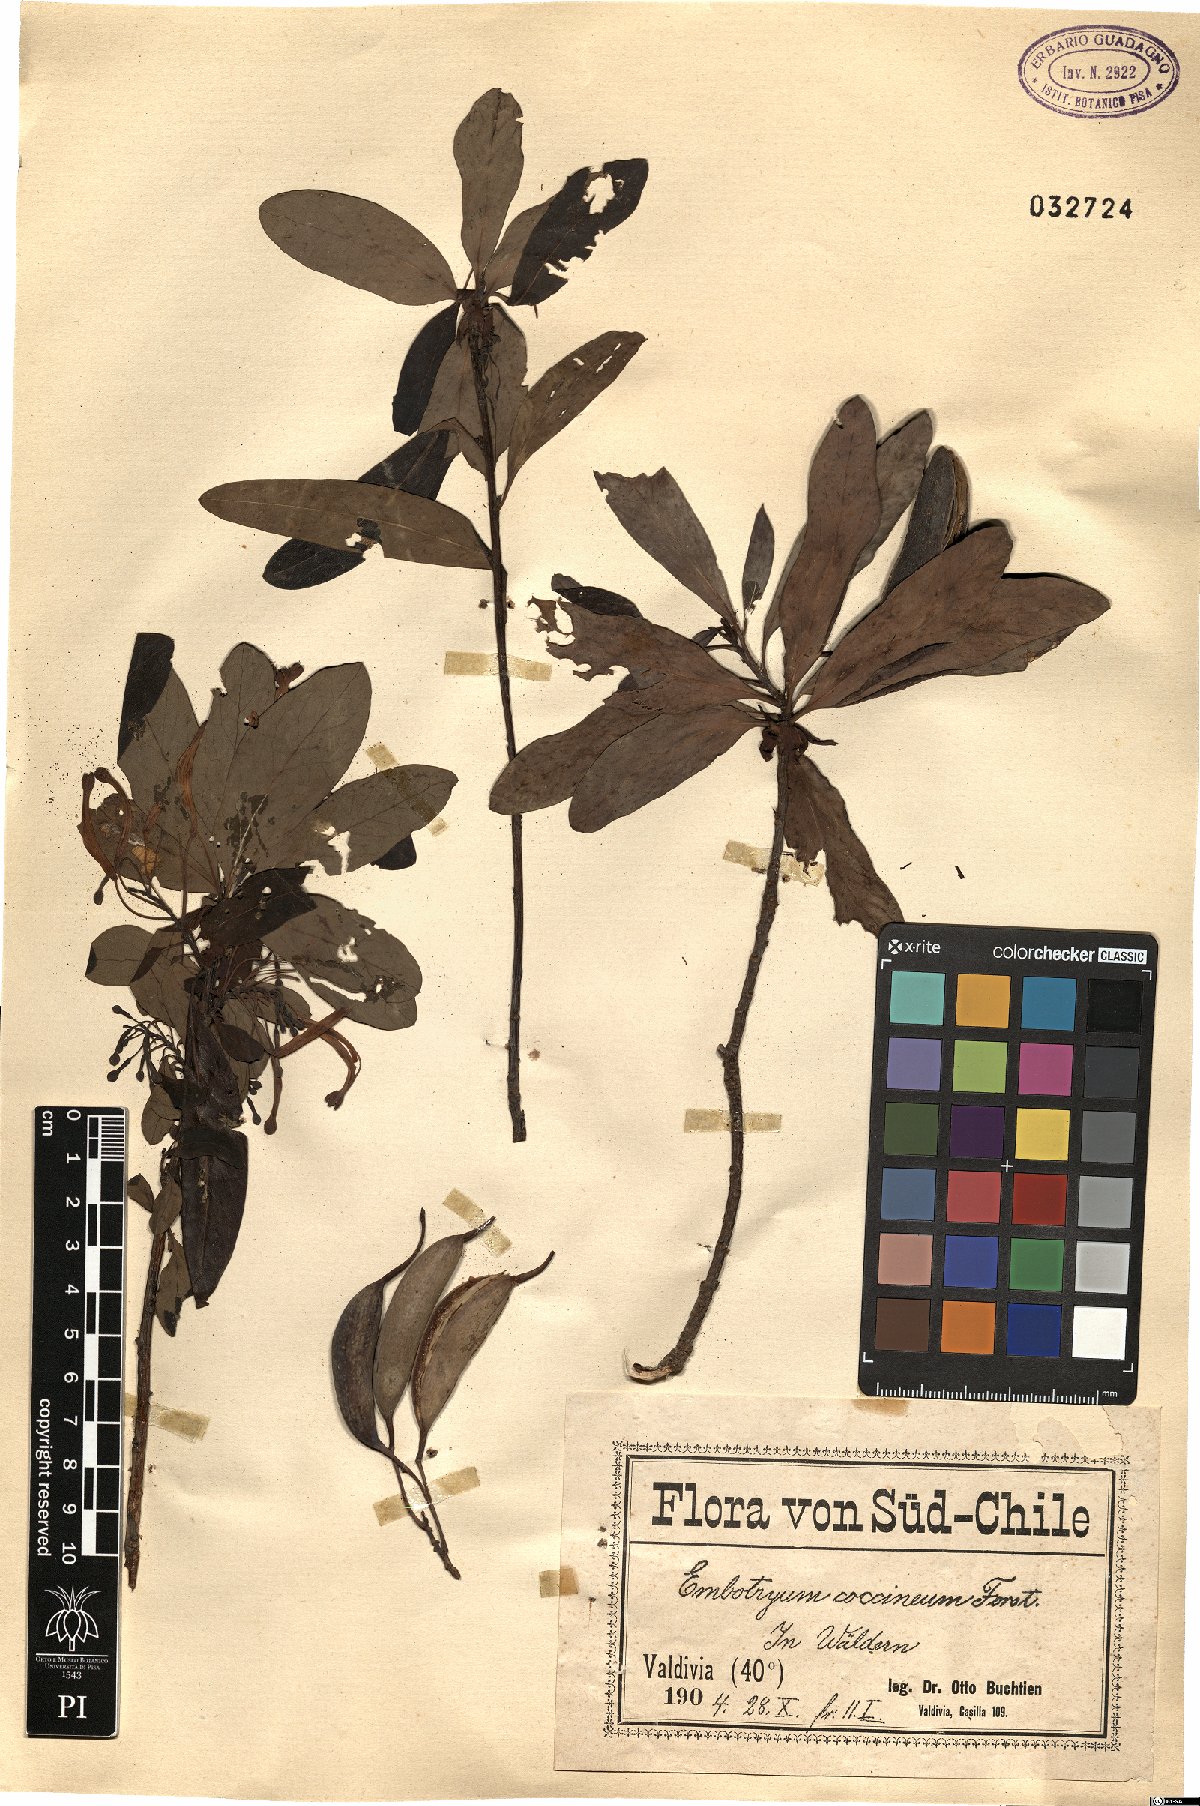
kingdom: Plantae
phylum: Tracheophyta
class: Magnoliopsida
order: Proteales
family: Proteaceae
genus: Embothrium
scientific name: Embothrium coccineum
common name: Chilean firebush
